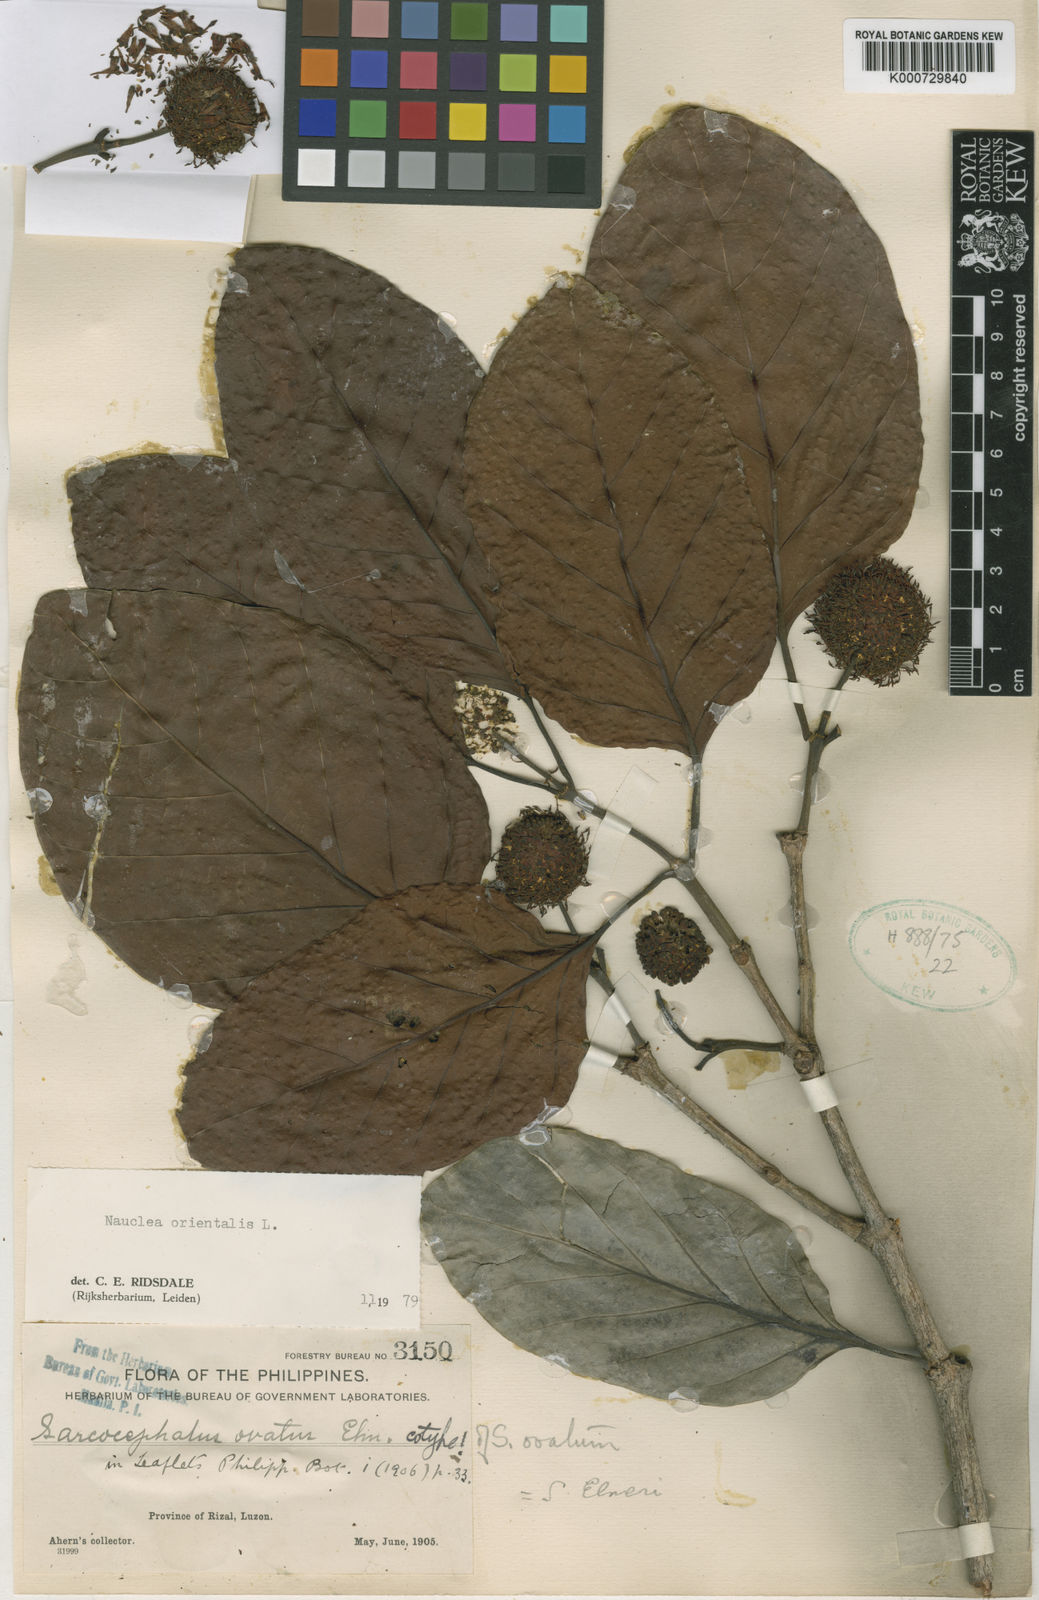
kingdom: Plantae
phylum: Tracheophyta
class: Magnoliopsida
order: Gentianales
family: Rubiaceae
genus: Nauclea
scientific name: Nauclea orientalis
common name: Leichhardt-pine
